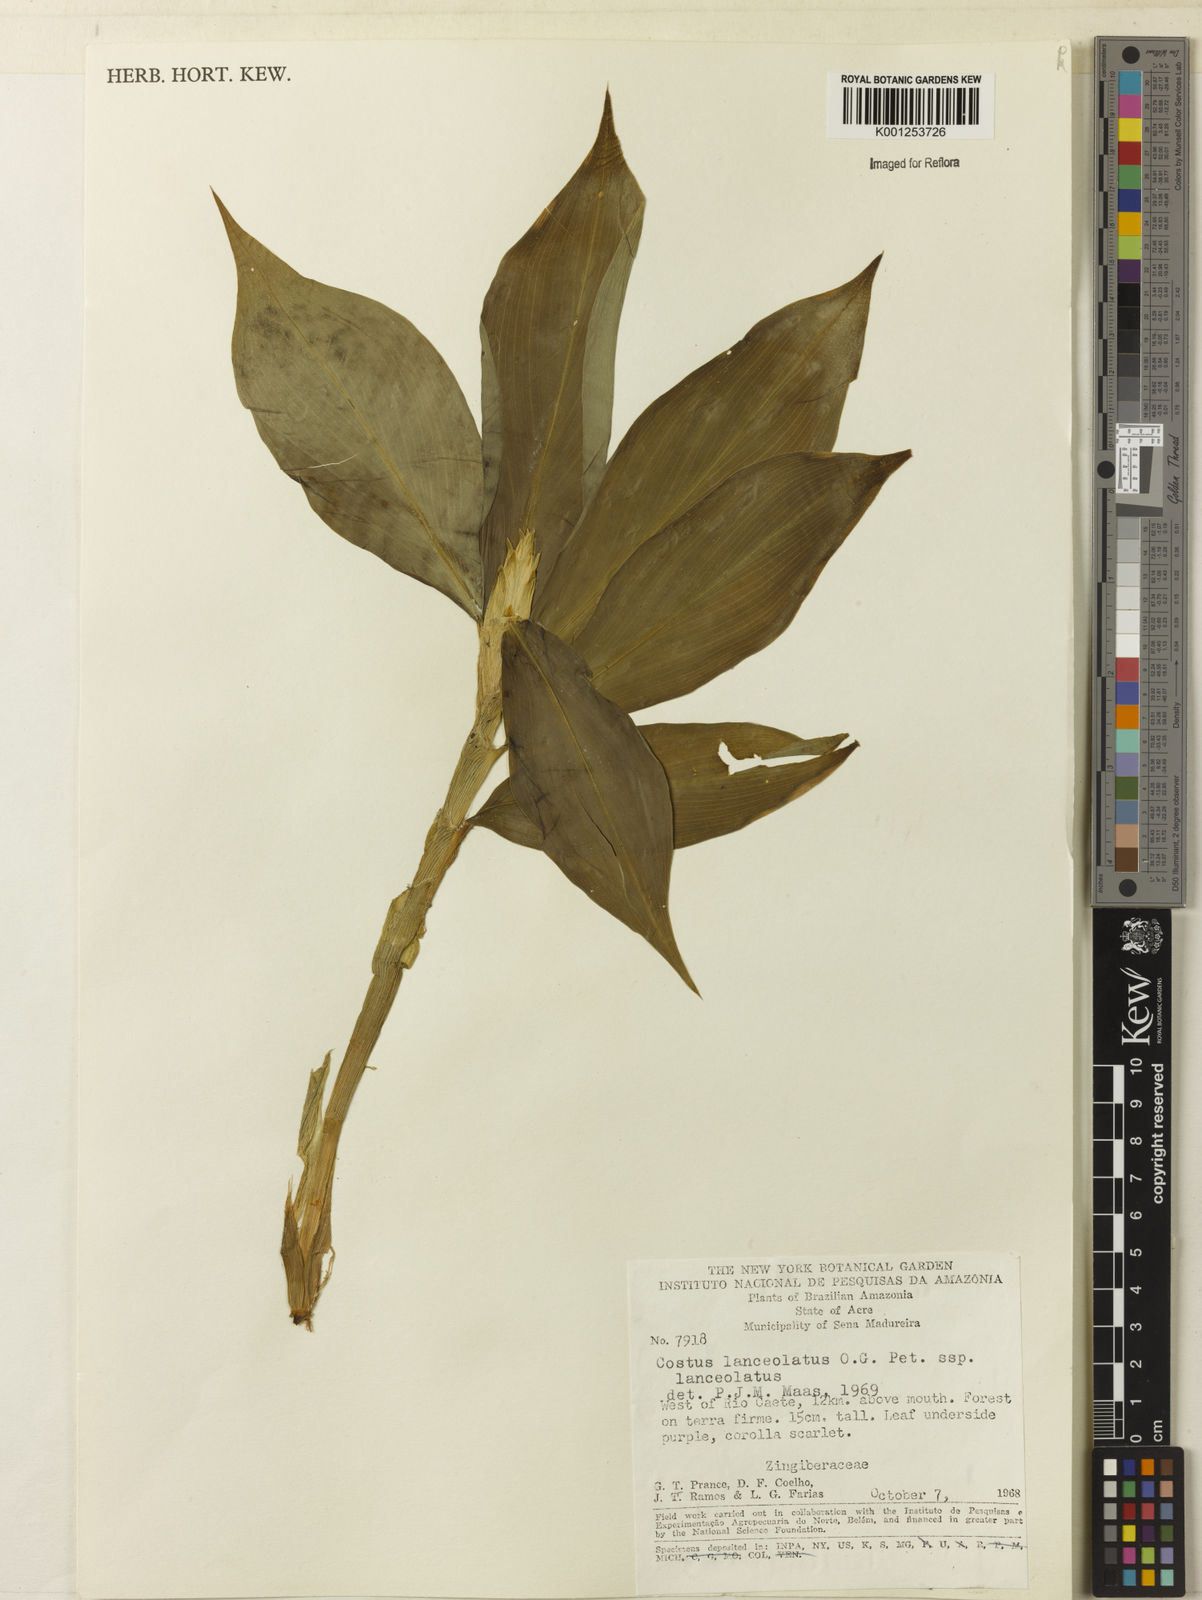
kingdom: Plantae
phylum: Tracheophyta
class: Liliopsida
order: Zingiberales
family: Costaceae
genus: Chamaecostus
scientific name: Chamaecostus lanceolatus
